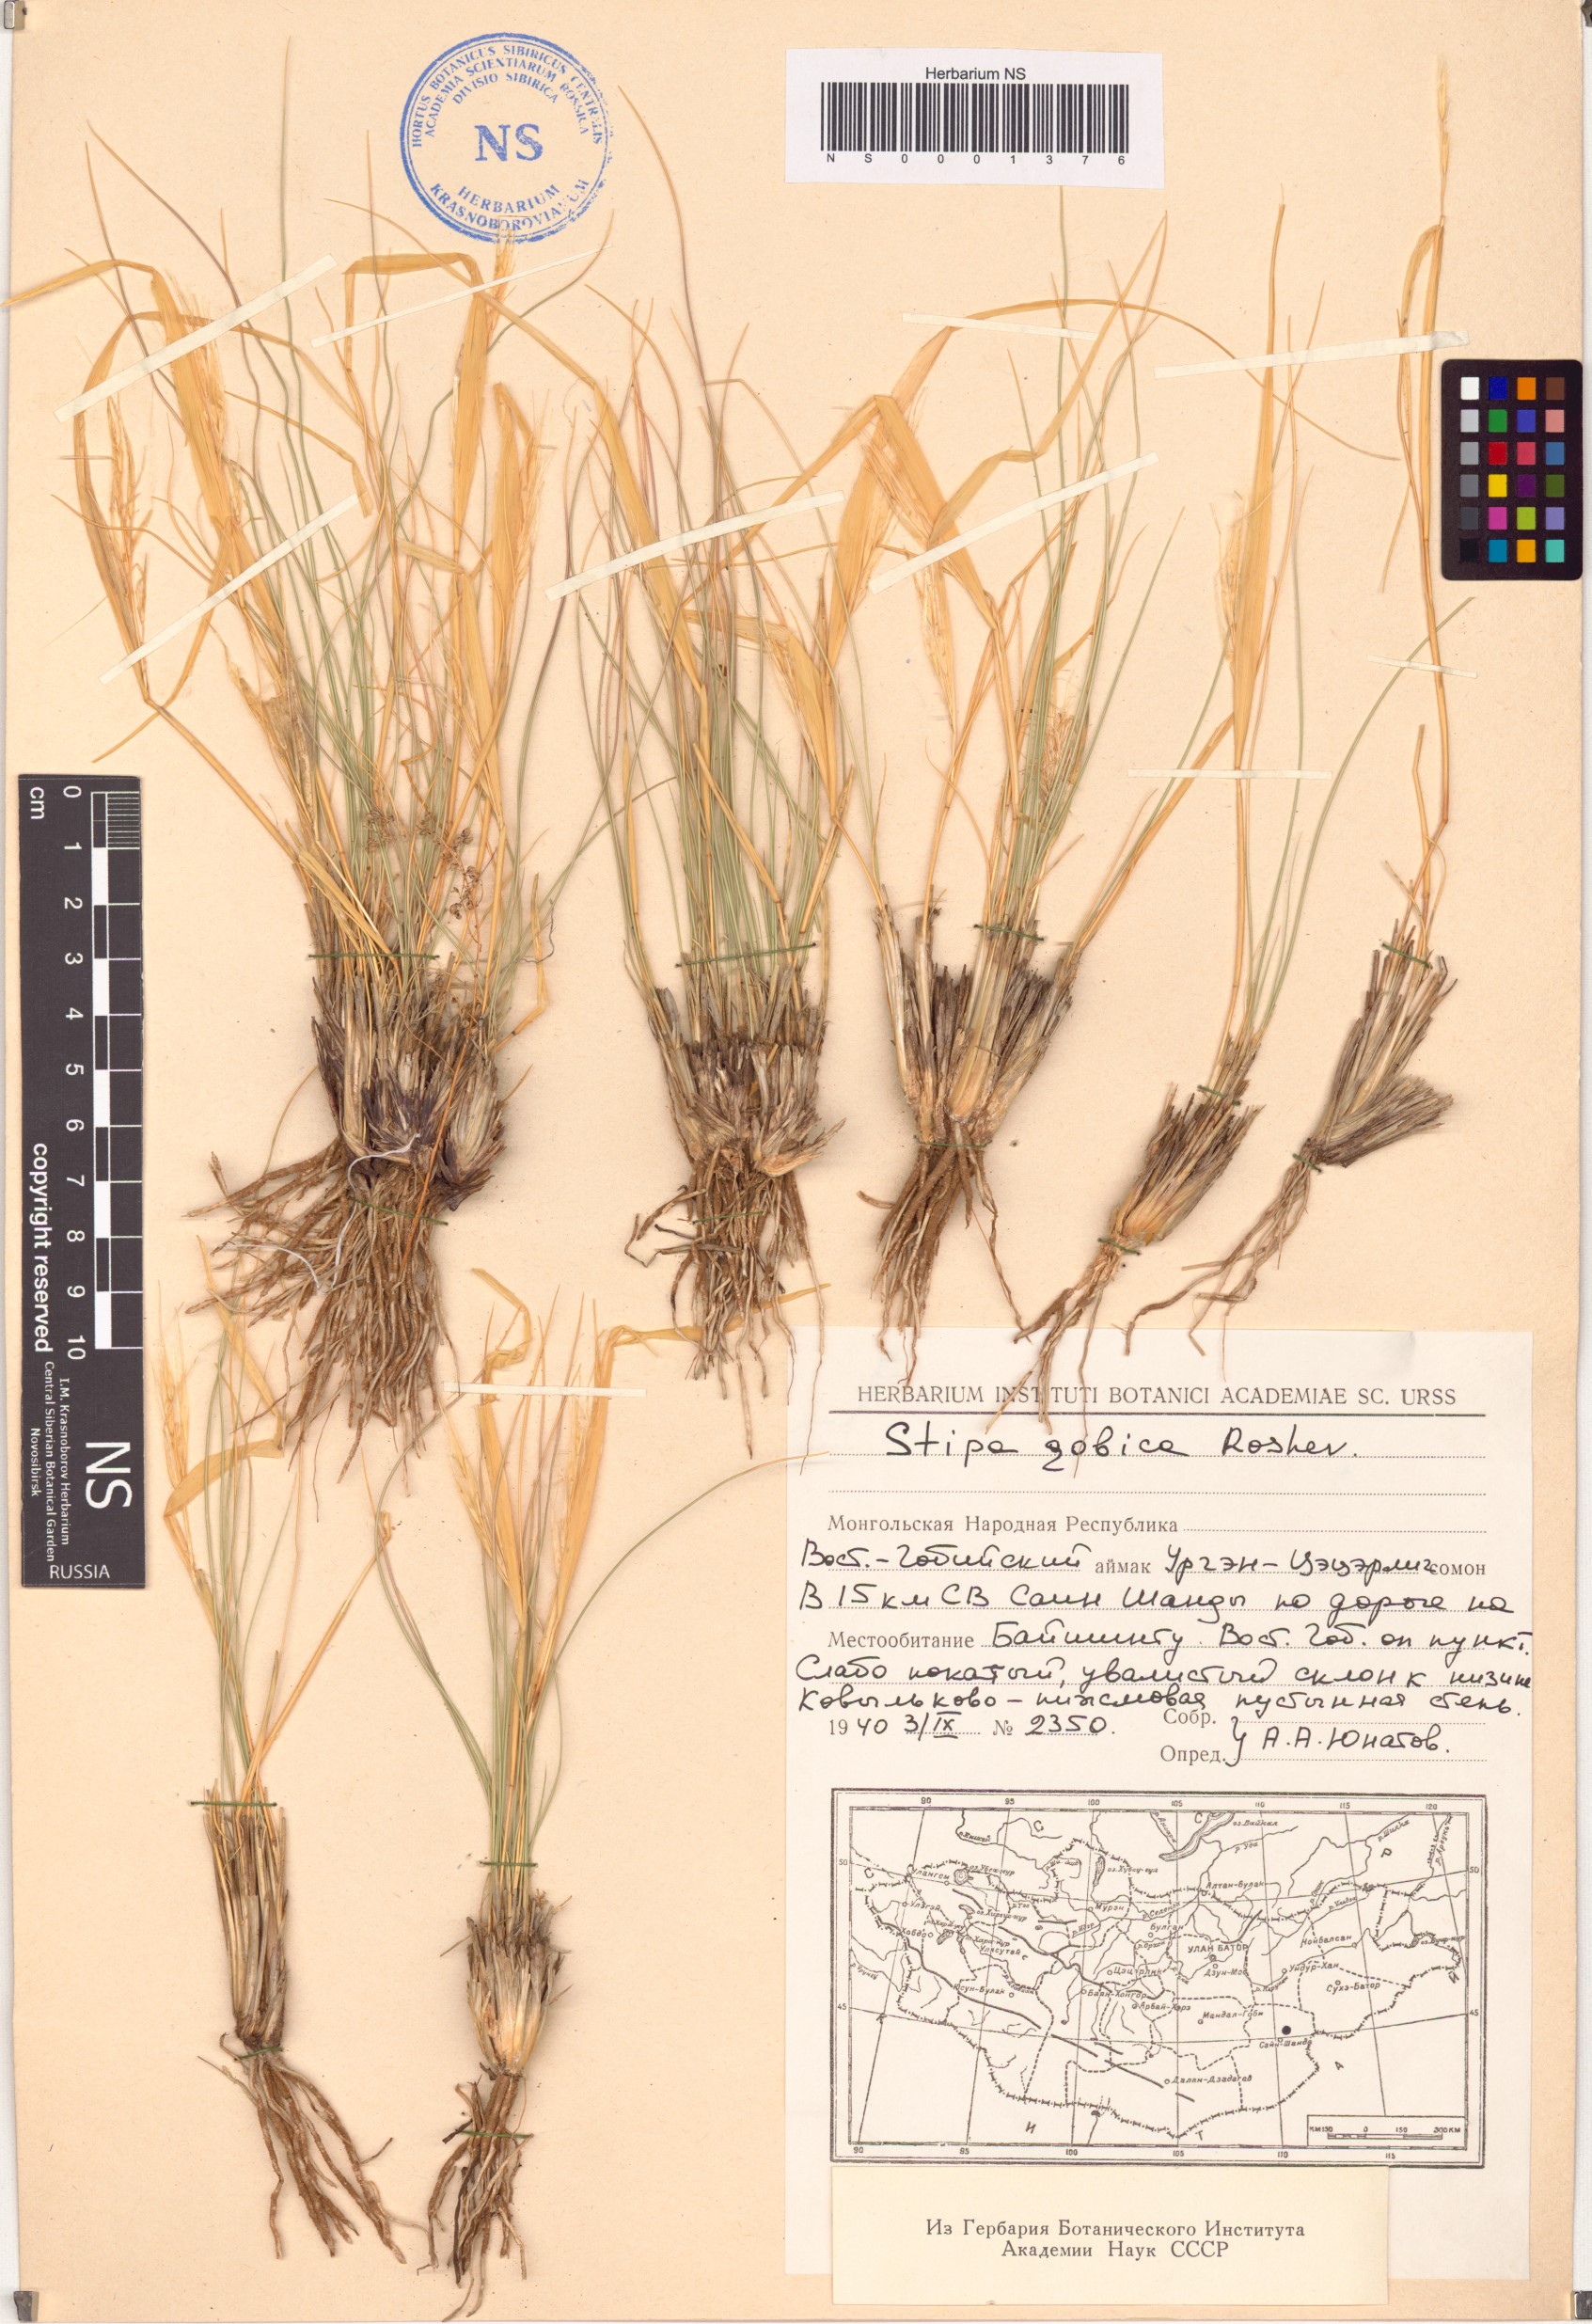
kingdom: Plantae
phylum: Tracheophyta
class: Liliopsida
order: Poales
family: Poaceae
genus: Stipa
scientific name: Stipa tianschanica
